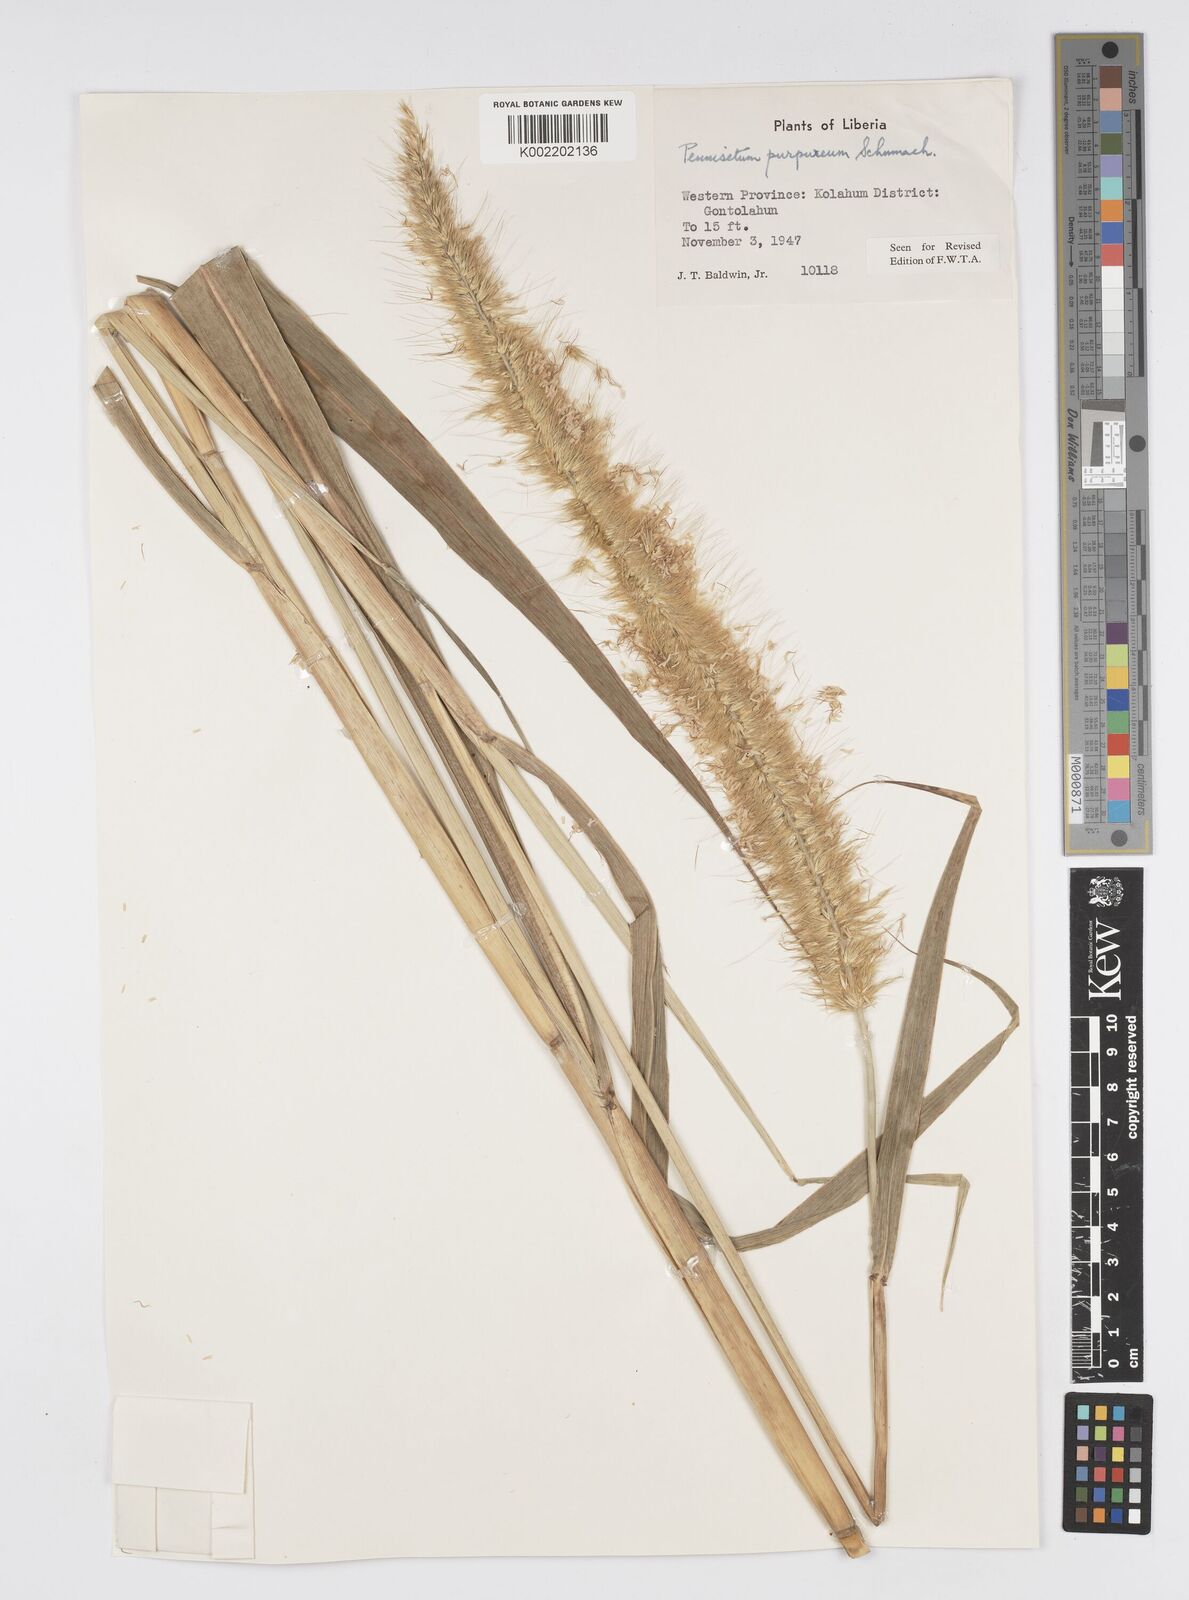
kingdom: Plantae
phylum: Tracheophyta
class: Liliopsida
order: Poales
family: Poaceae
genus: Cenchrus
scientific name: Cenchrus purpureus
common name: Elephant grass
